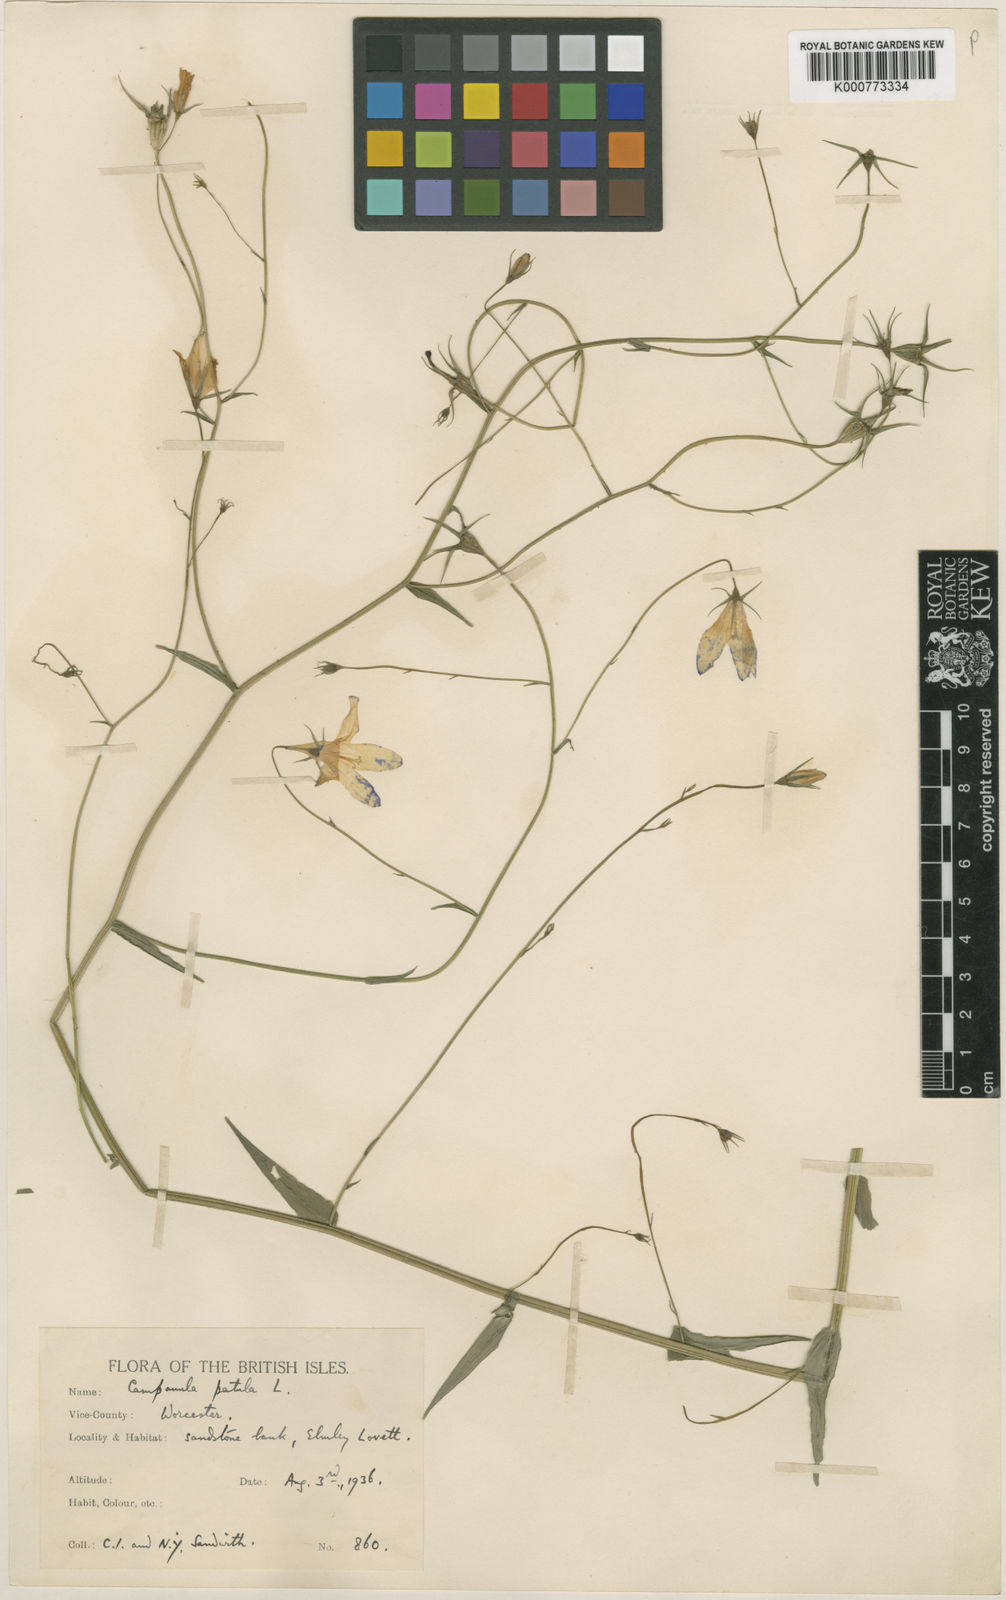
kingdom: Plantae
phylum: Tracheophyta
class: Magnoliopsida
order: Asterales
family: Campanulaceae
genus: Campanula
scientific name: Campanula patula
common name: Spreading bellflower
